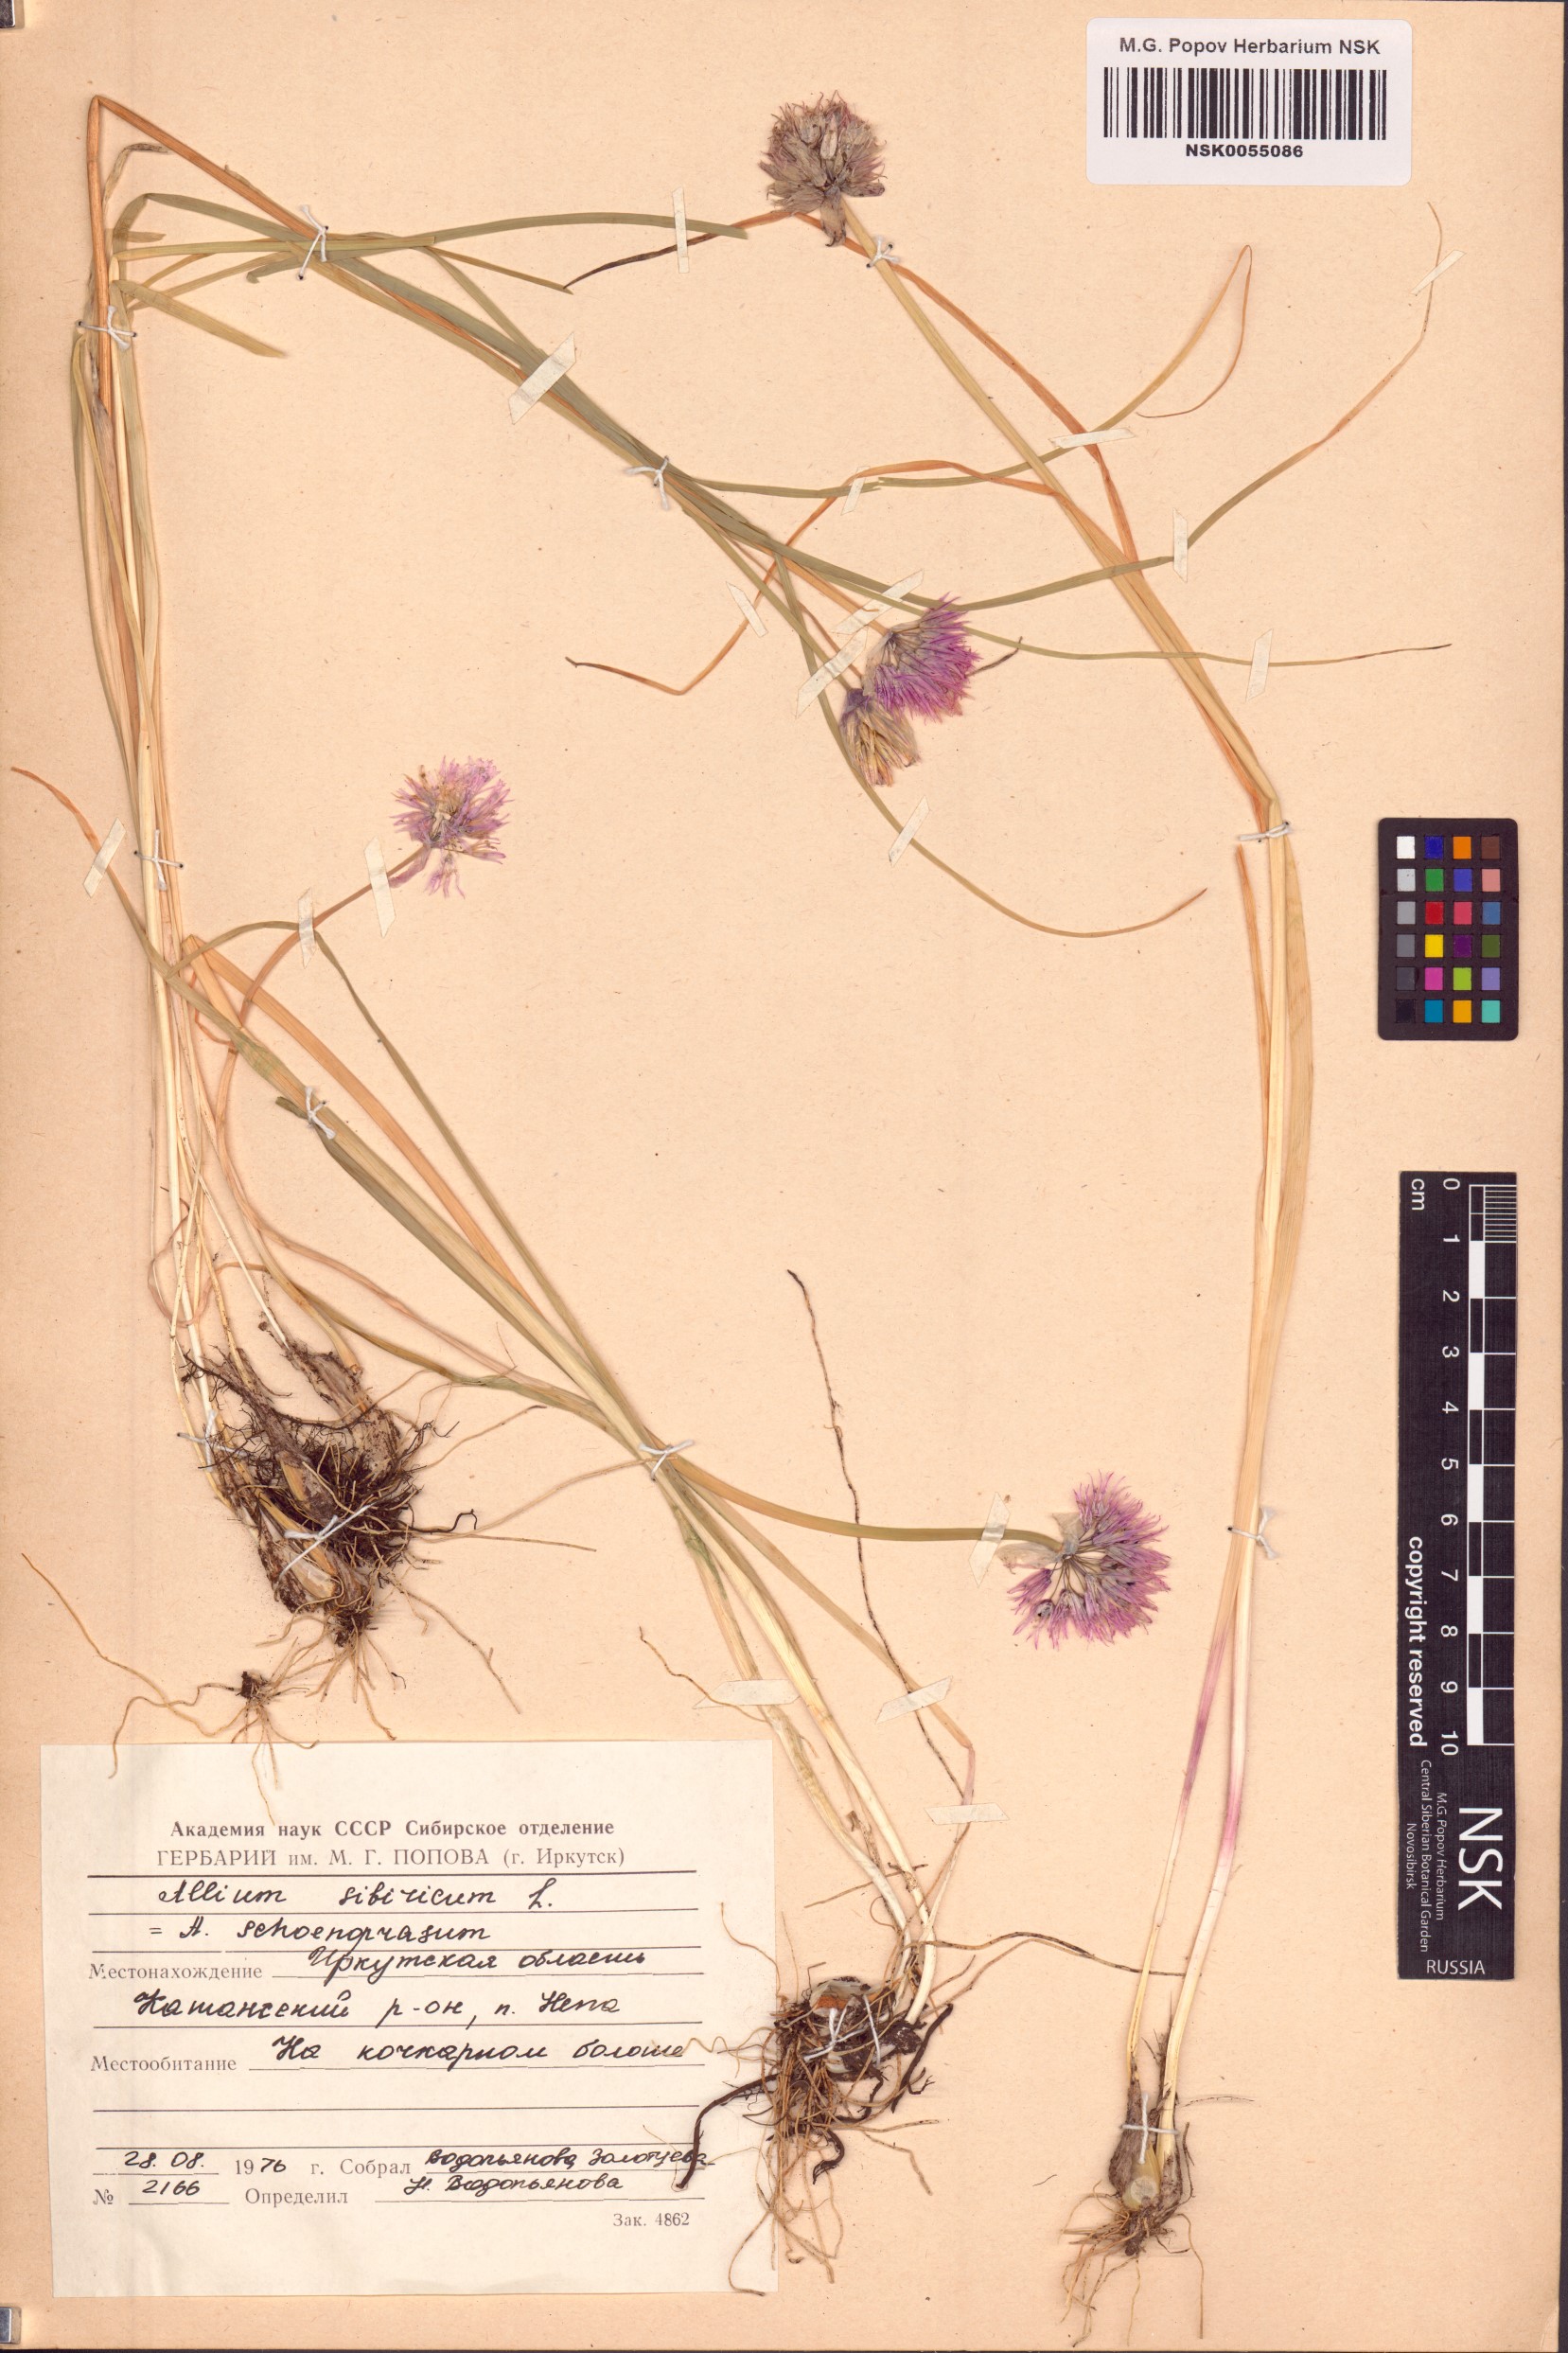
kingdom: Plantae
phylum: Tracheophyta
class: Liliopsida
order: Asparagales
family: Amaryllidaceae
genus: Allium
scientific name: Allium schoenoprasum
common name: Chives
